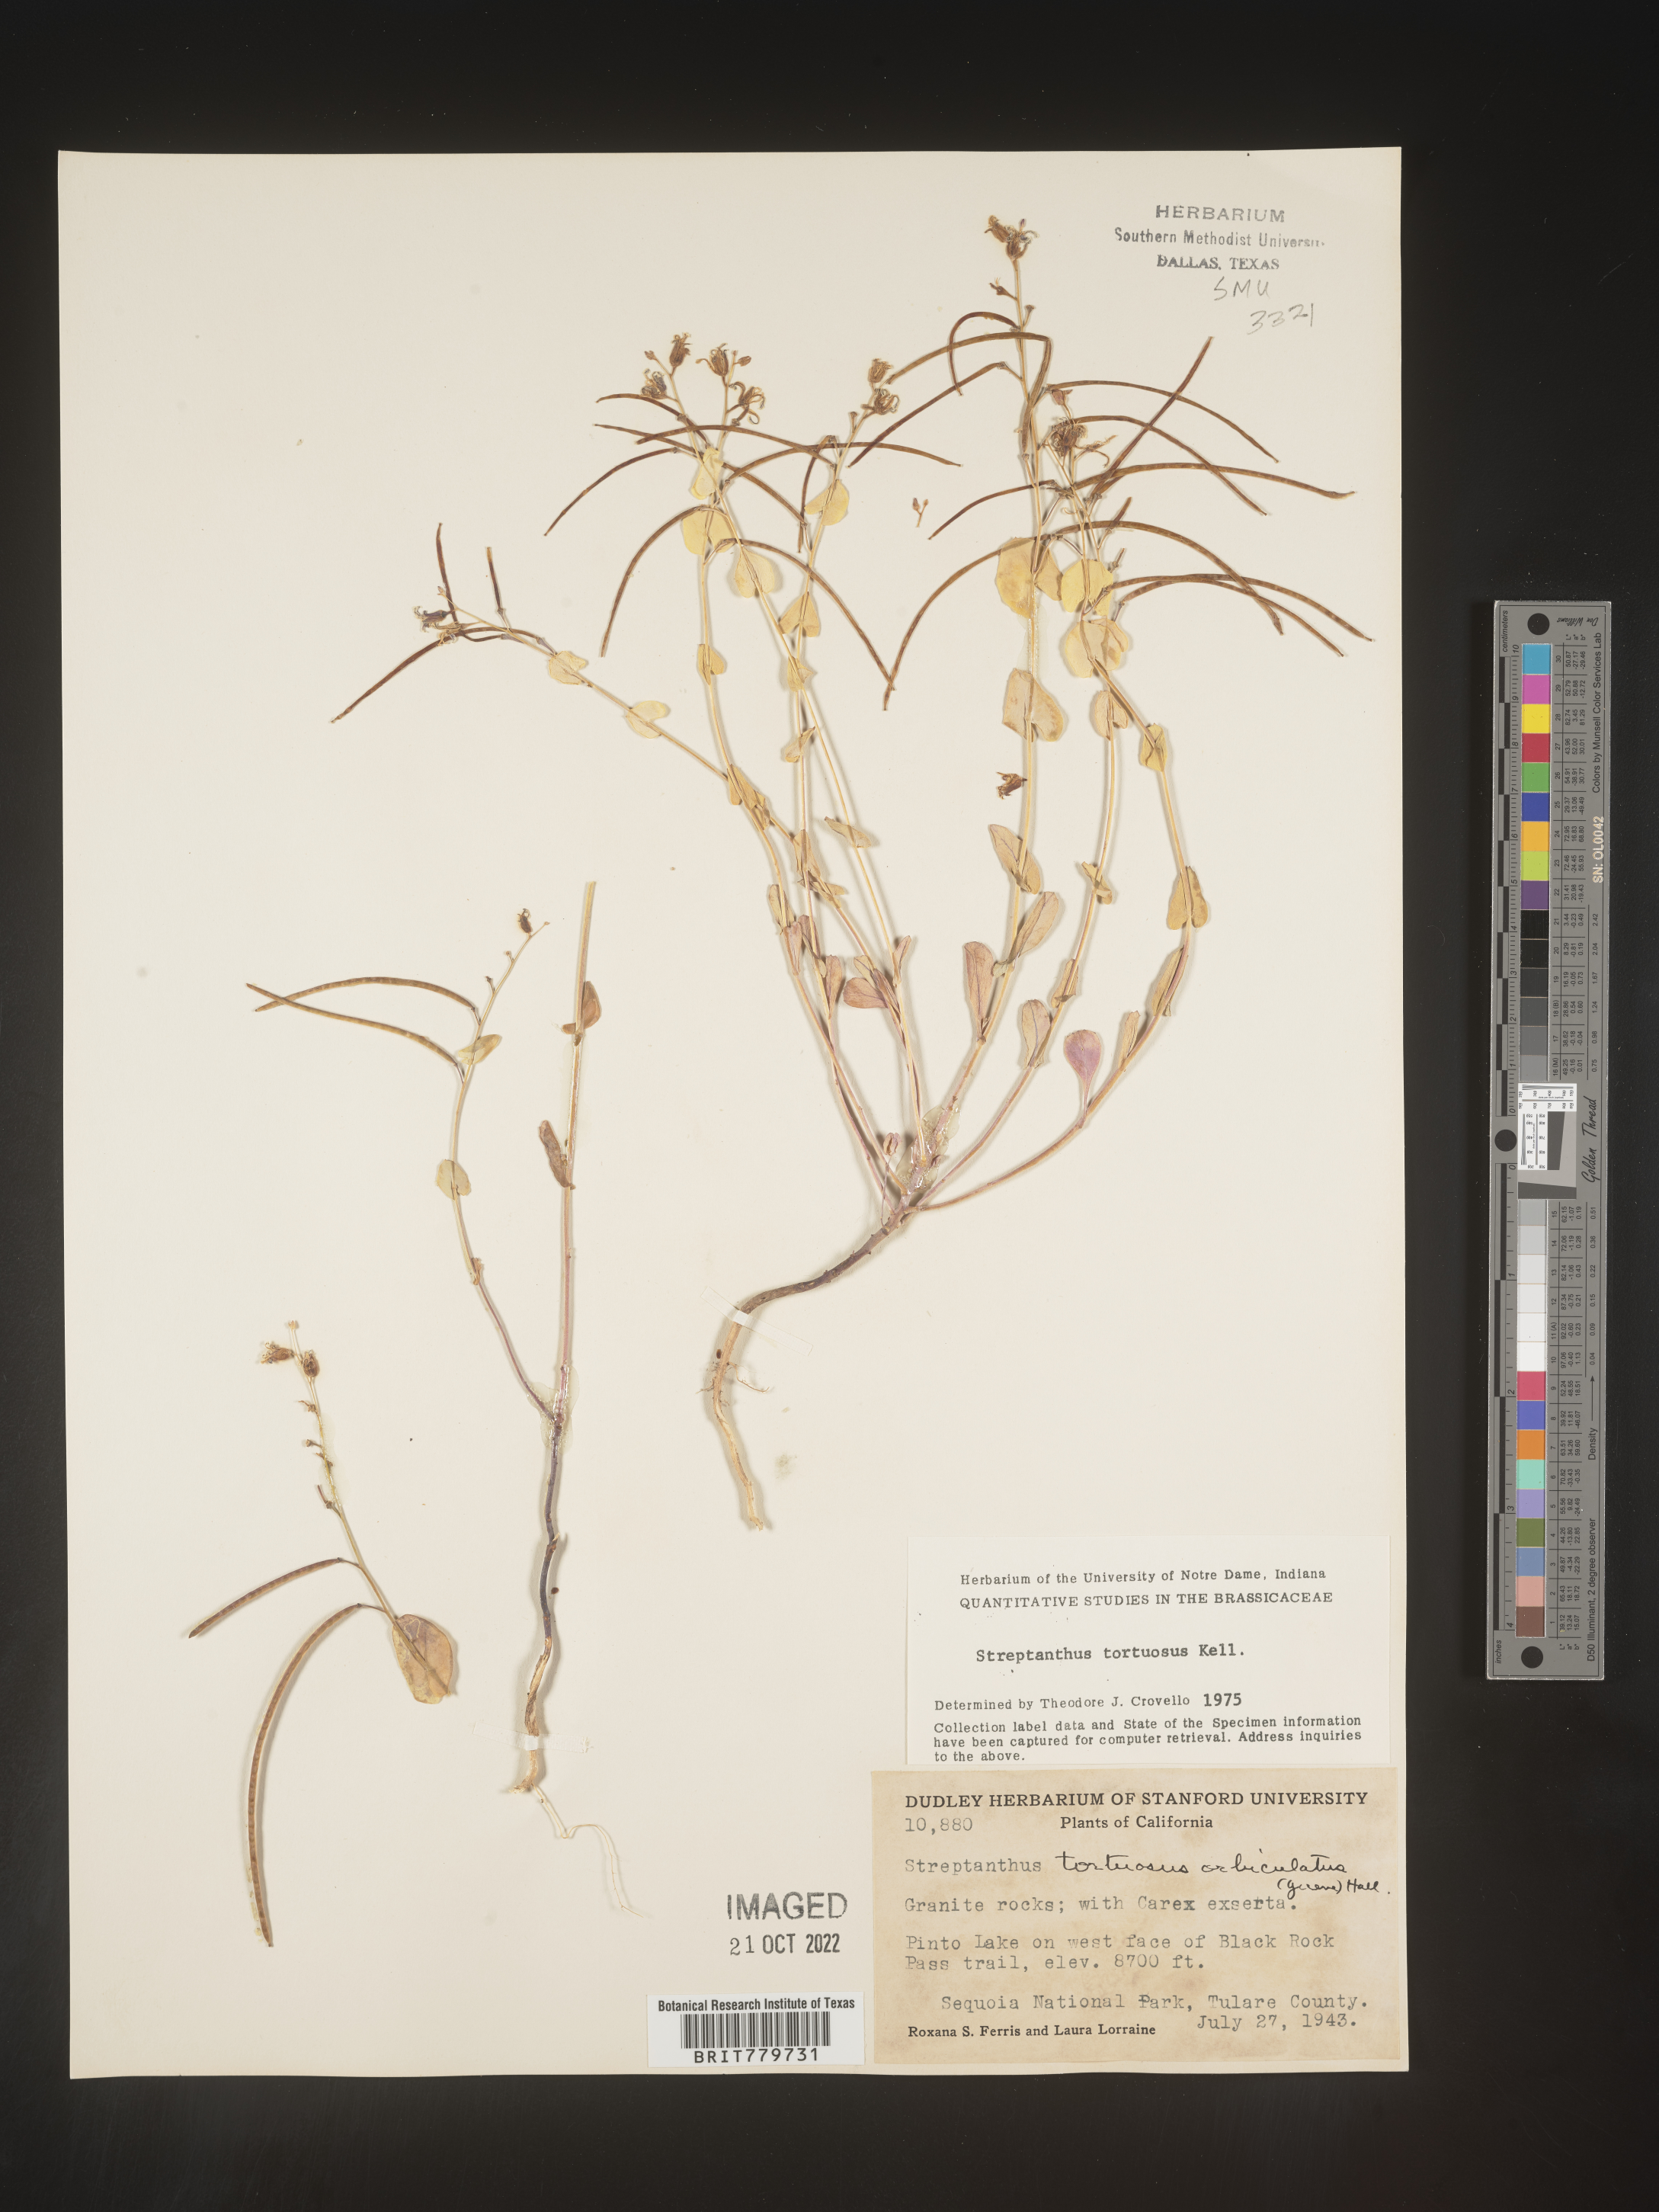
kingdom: Plantae
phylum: Tracheophyta
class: Magnoliopsida
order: Brassicales
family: Brassicaceae
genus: Streptanthus
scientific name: Streptanthus
